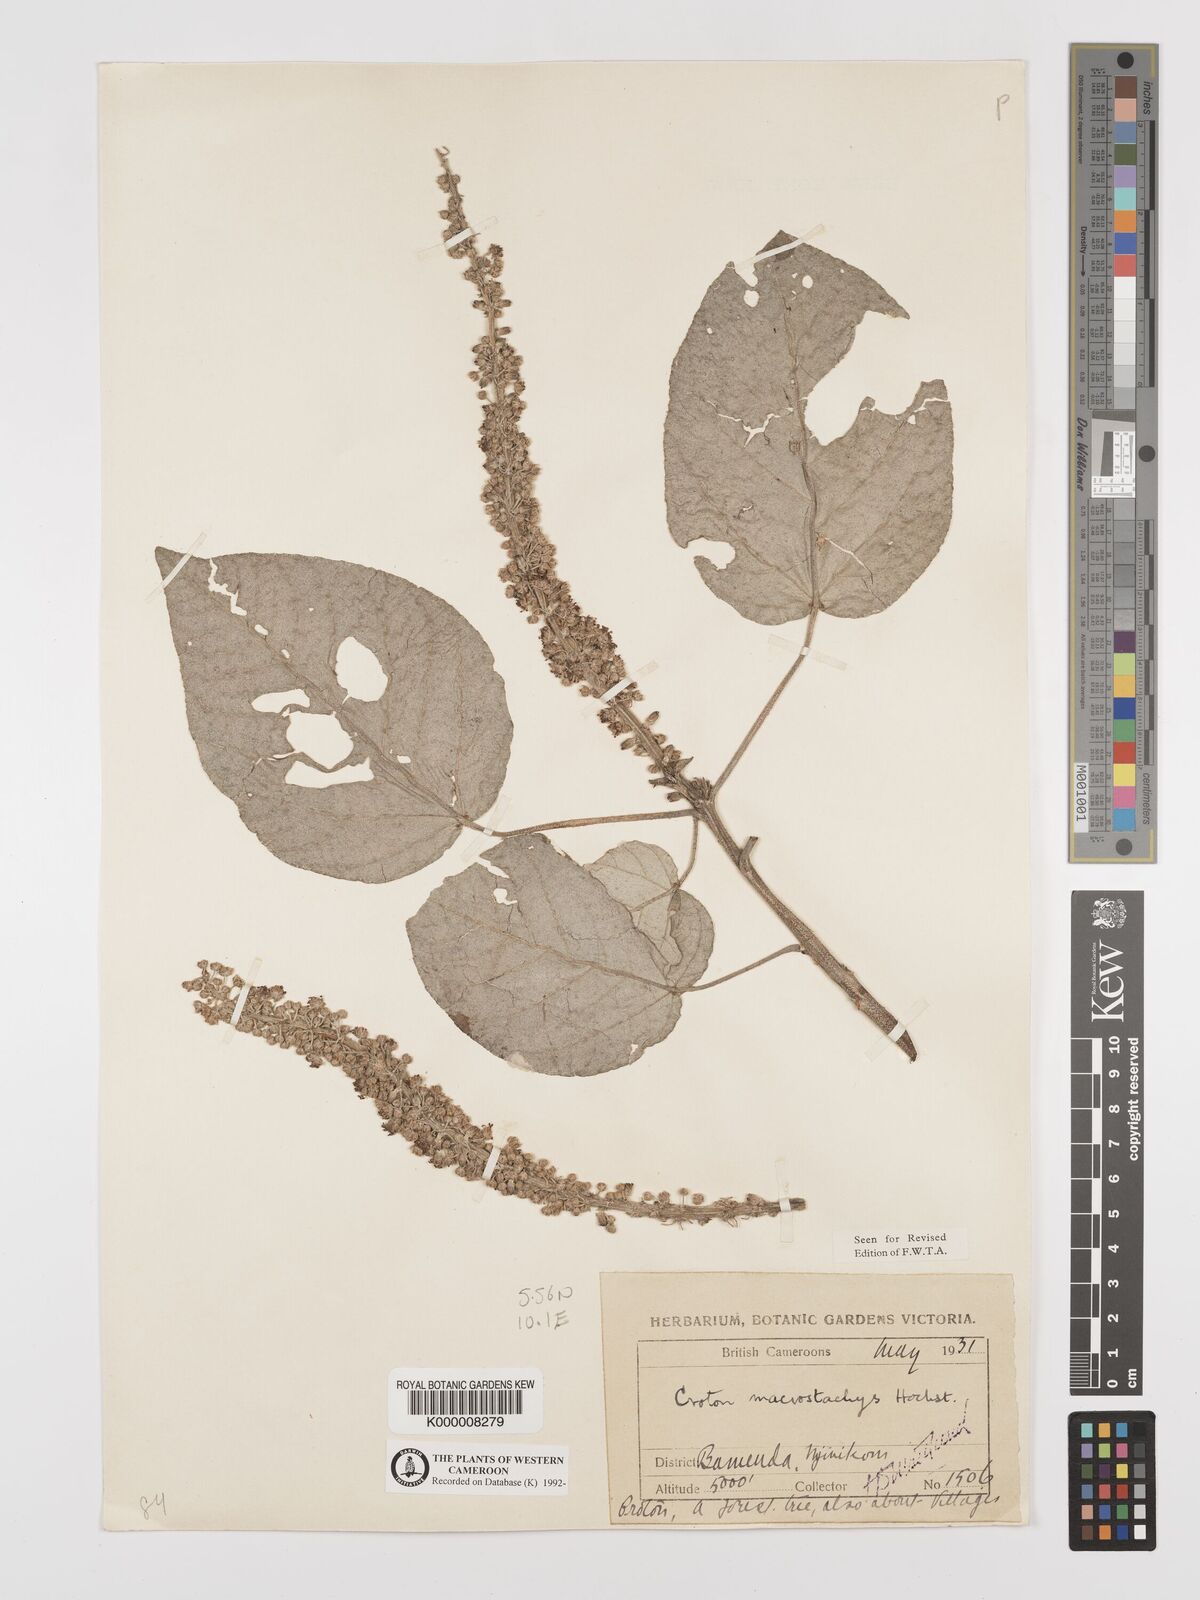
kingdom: Plantae
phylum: Tracheophyta
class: Magnoliopsida
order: Malpighiales
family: Euphorbiaceae
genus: Croton
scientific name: Croton longiracemosus
